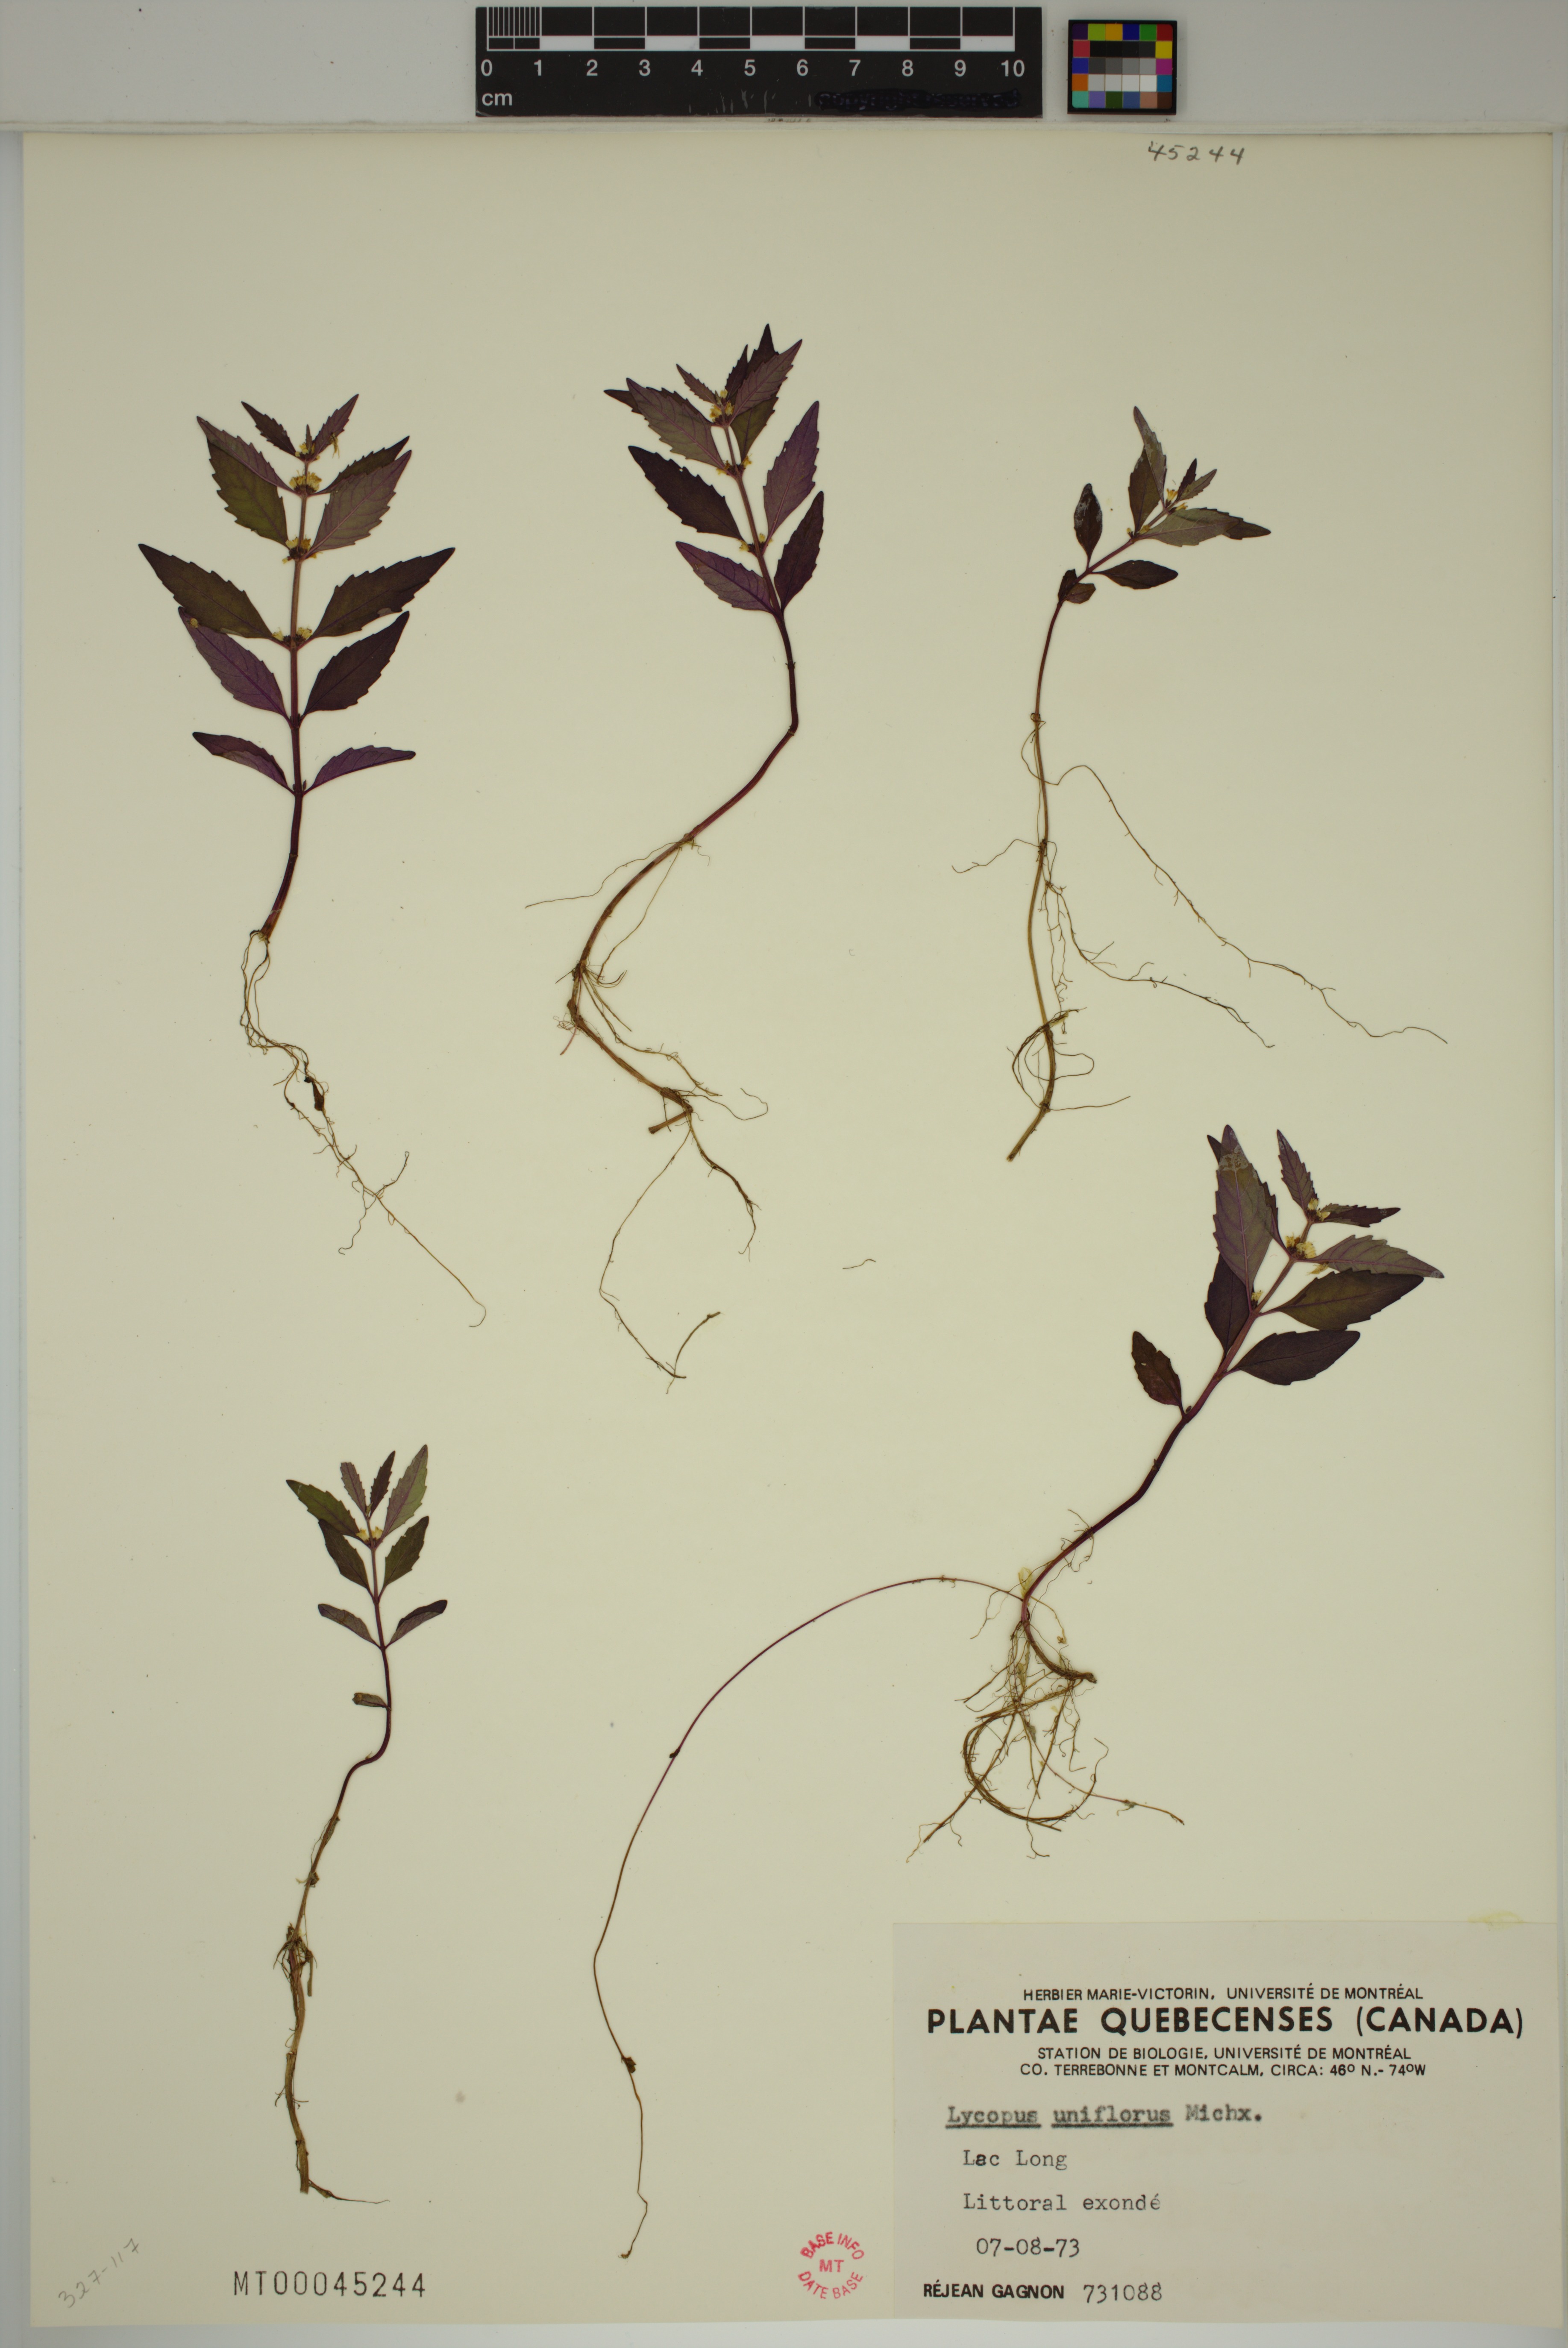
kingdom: Plantae
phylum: Tracheophyta
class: Magnoliopsida
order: Lamiales
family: Lamiaceae
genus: Lycopus
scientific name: Lycopus uniflorus
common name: Northern bugleweed
